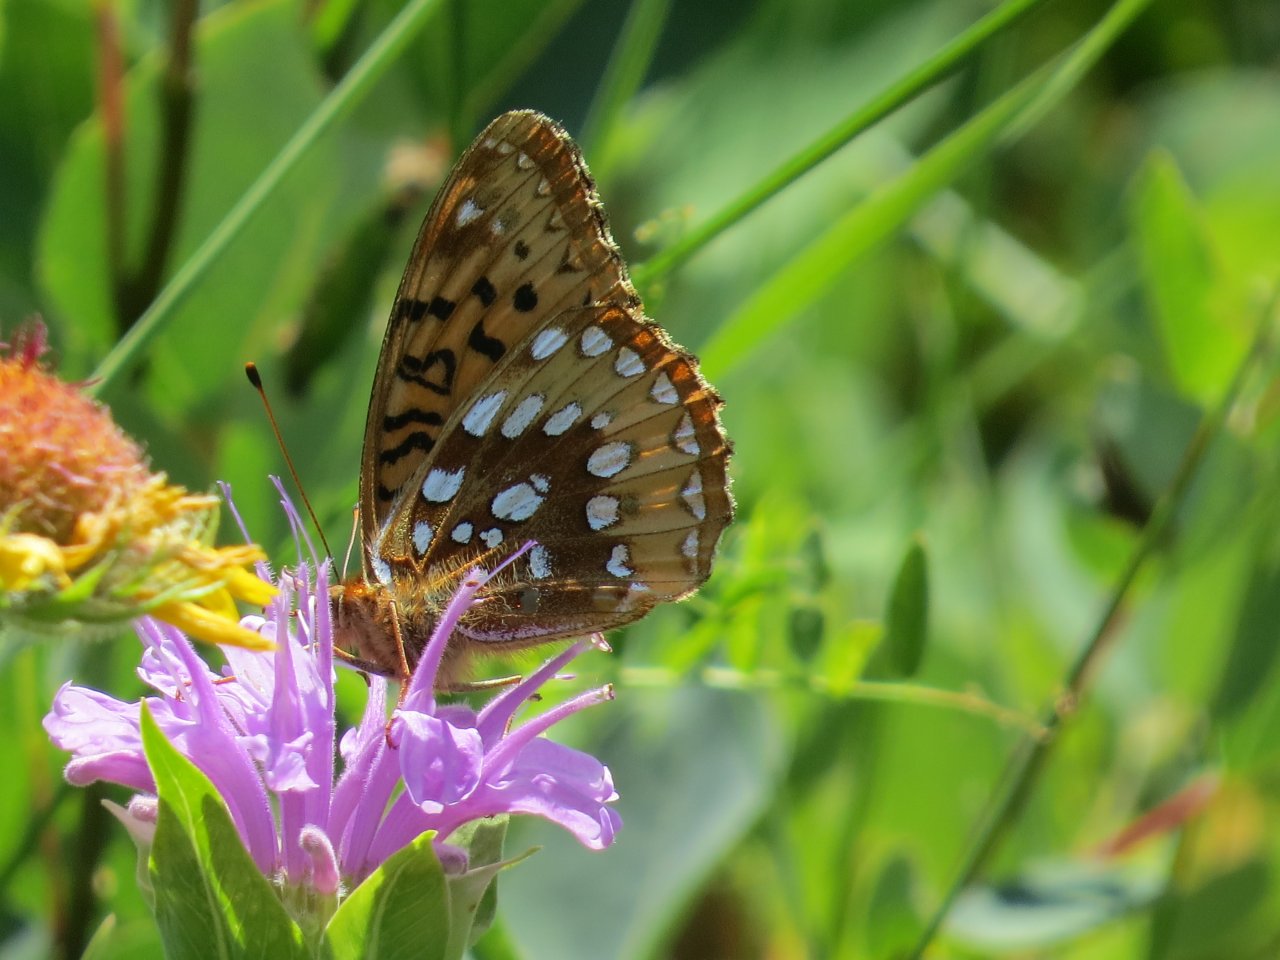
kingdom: Animalia
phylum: Arthropoda
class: Insecta
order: Lepidoptera
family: Nymphalidae
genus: Speyeria
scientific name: Speyeria cybele
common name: Great Spangled Fritillary
